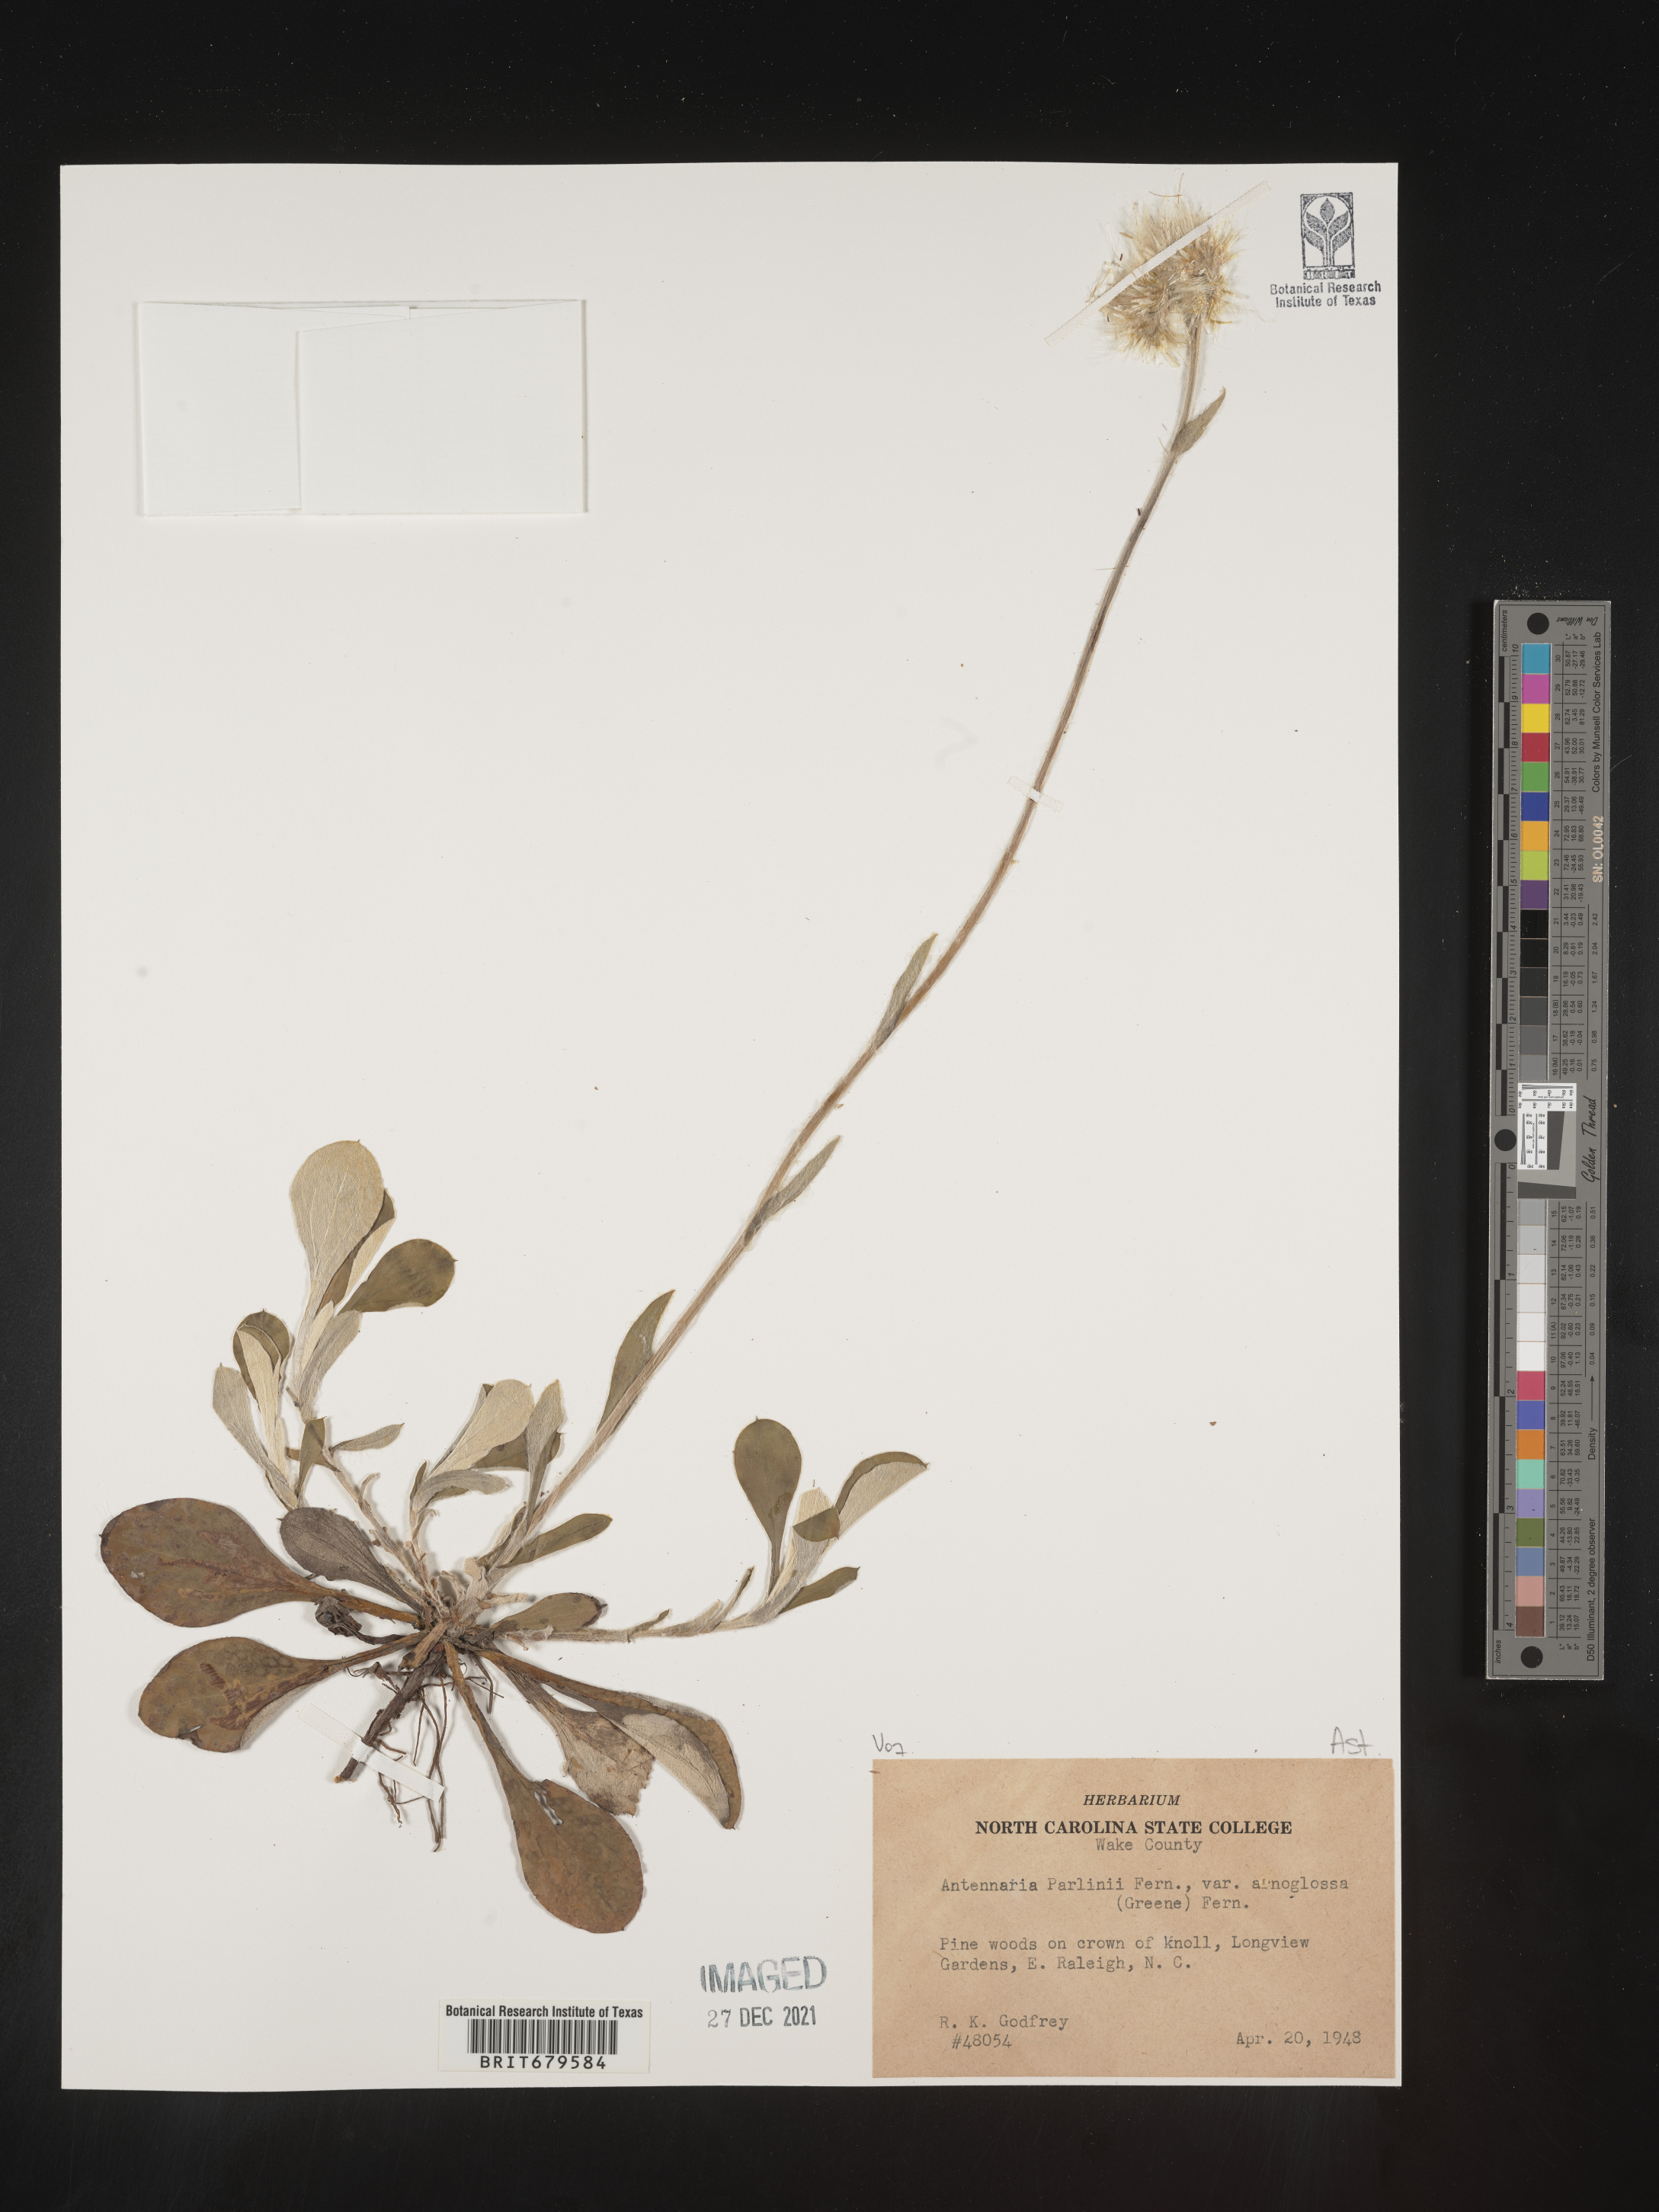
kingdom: Plantae
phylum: Tracheophyta
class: Magnoliopsida
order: Asterales
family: Asteraceae
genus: Antennaria
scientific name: Antennaria parlinii
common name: Parlin's pussytoes
